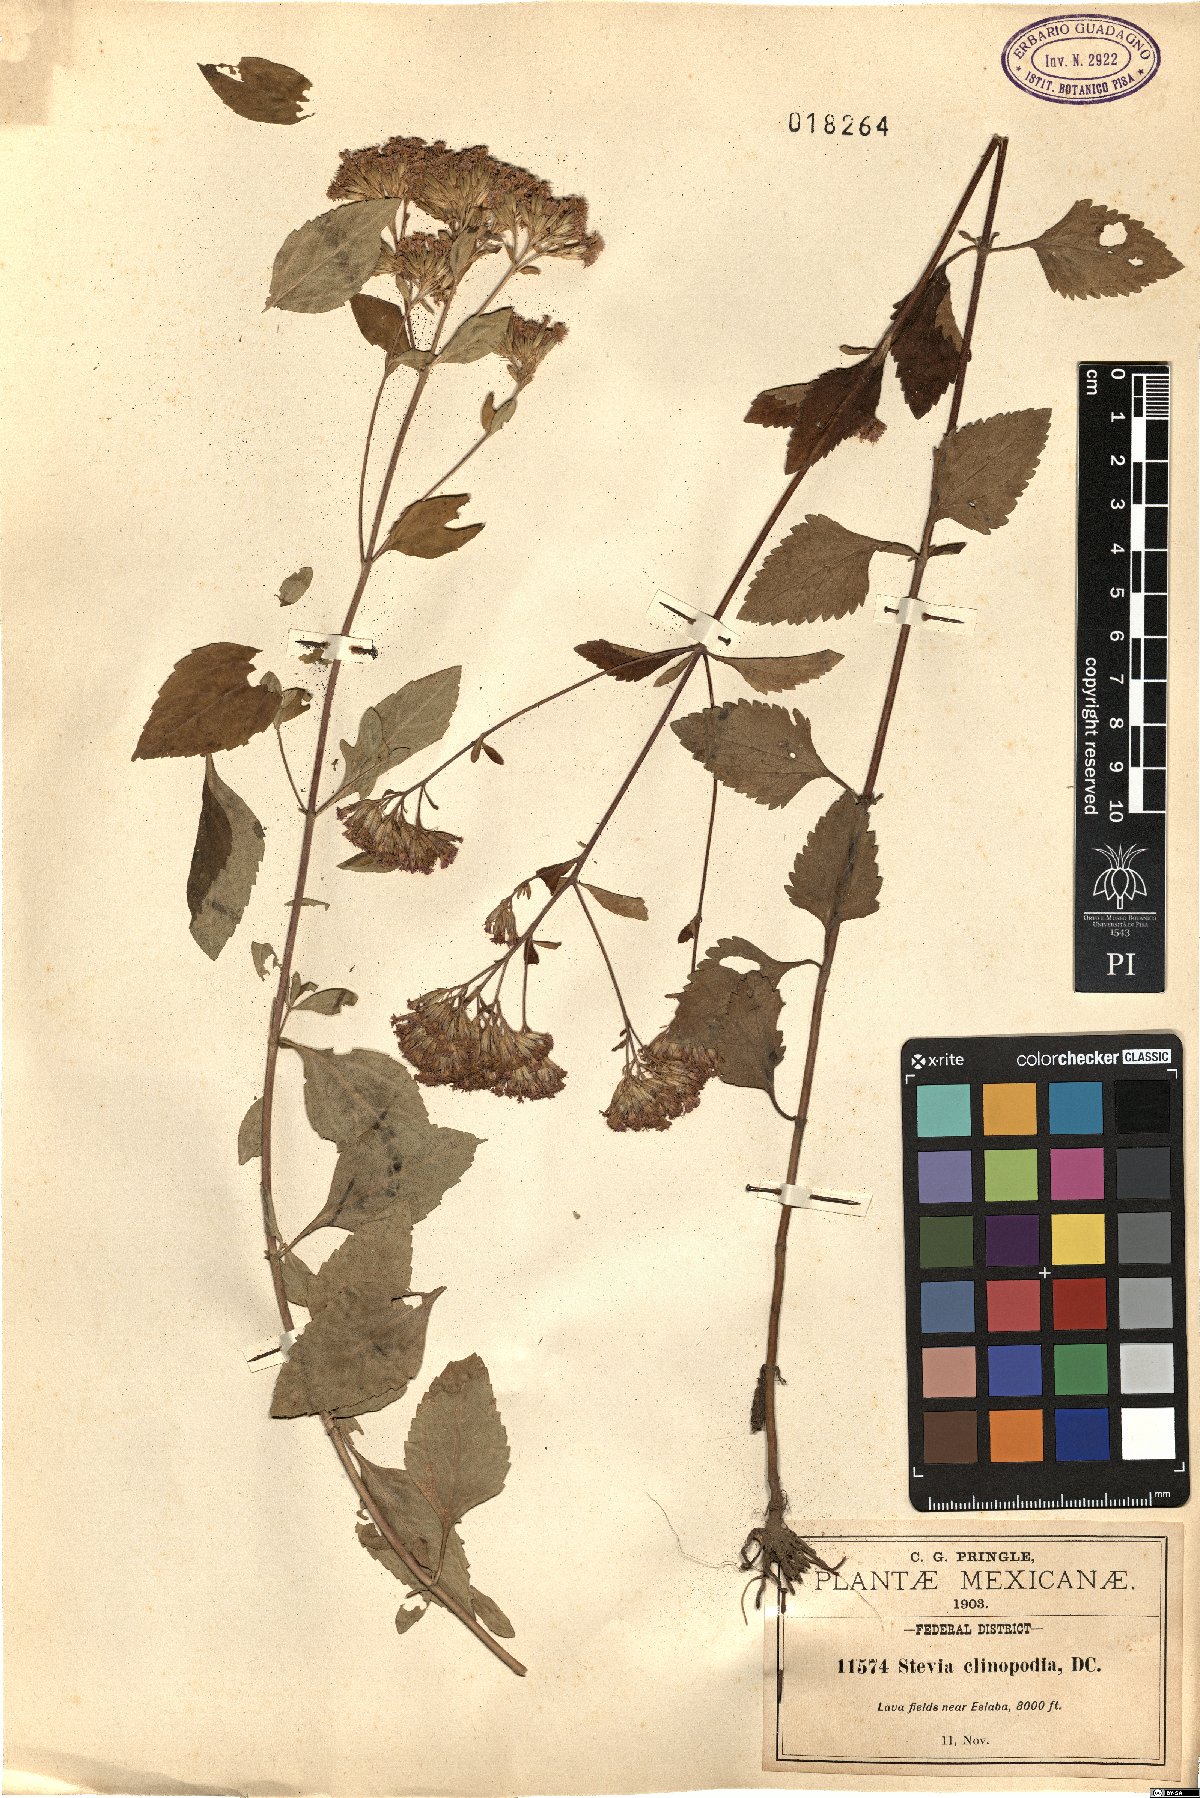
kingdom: Plantae
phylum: Tracheophyta
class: Magnoliopsida
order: Asterales
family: Asteraceae
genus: Stevia
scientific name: Stevia jorullensis
